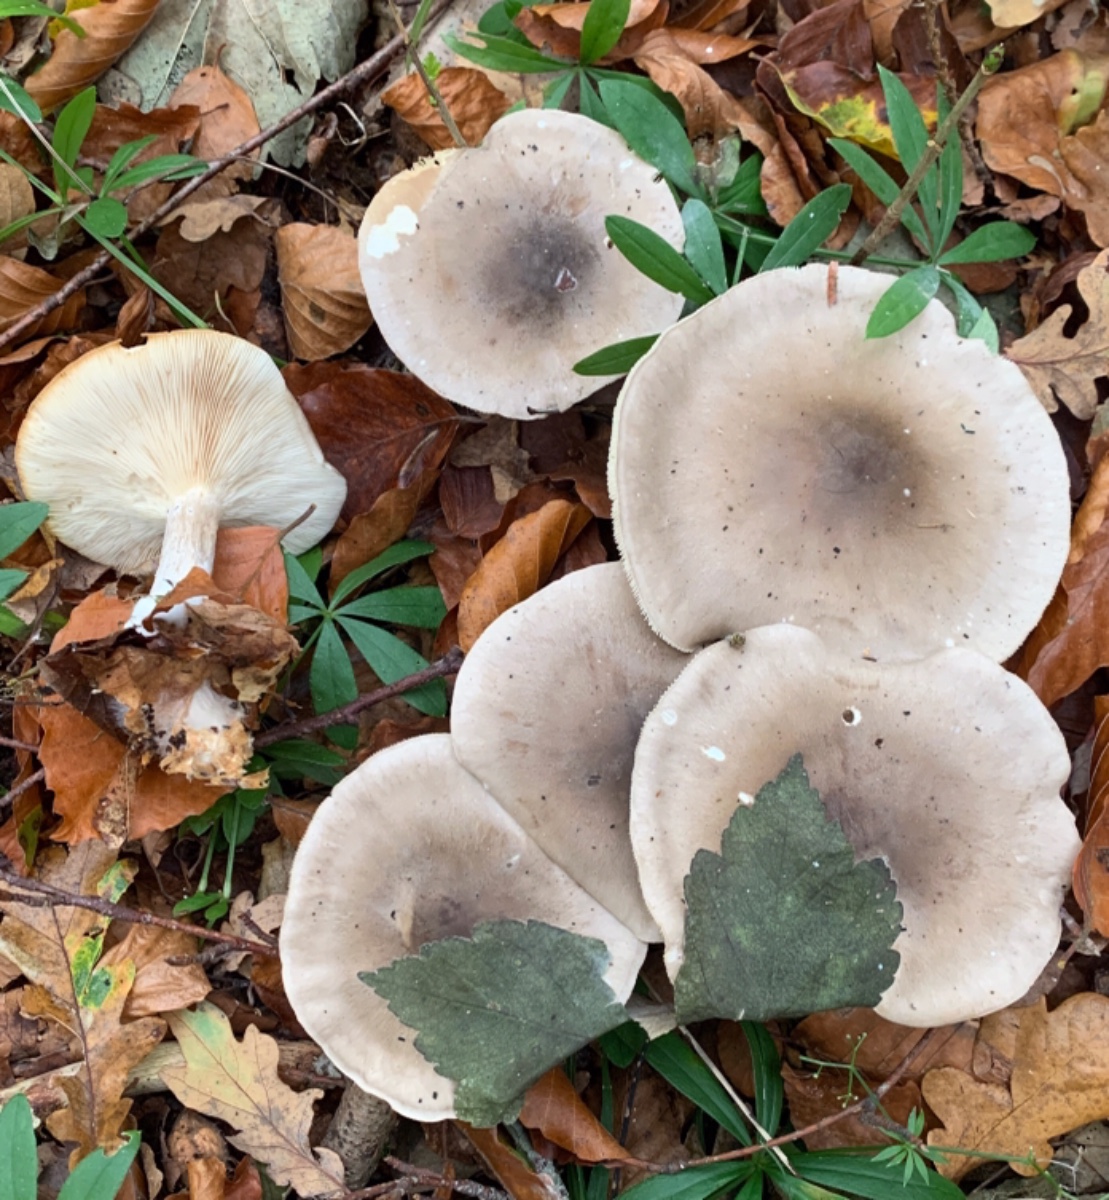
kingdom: Fungi
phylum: Basidiomycota
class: Agaricomycetes
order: Agaricales
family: Tricholomataceae
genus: Clitocybe
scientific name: Clitocybe nebularis
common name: tåge-tragthat
